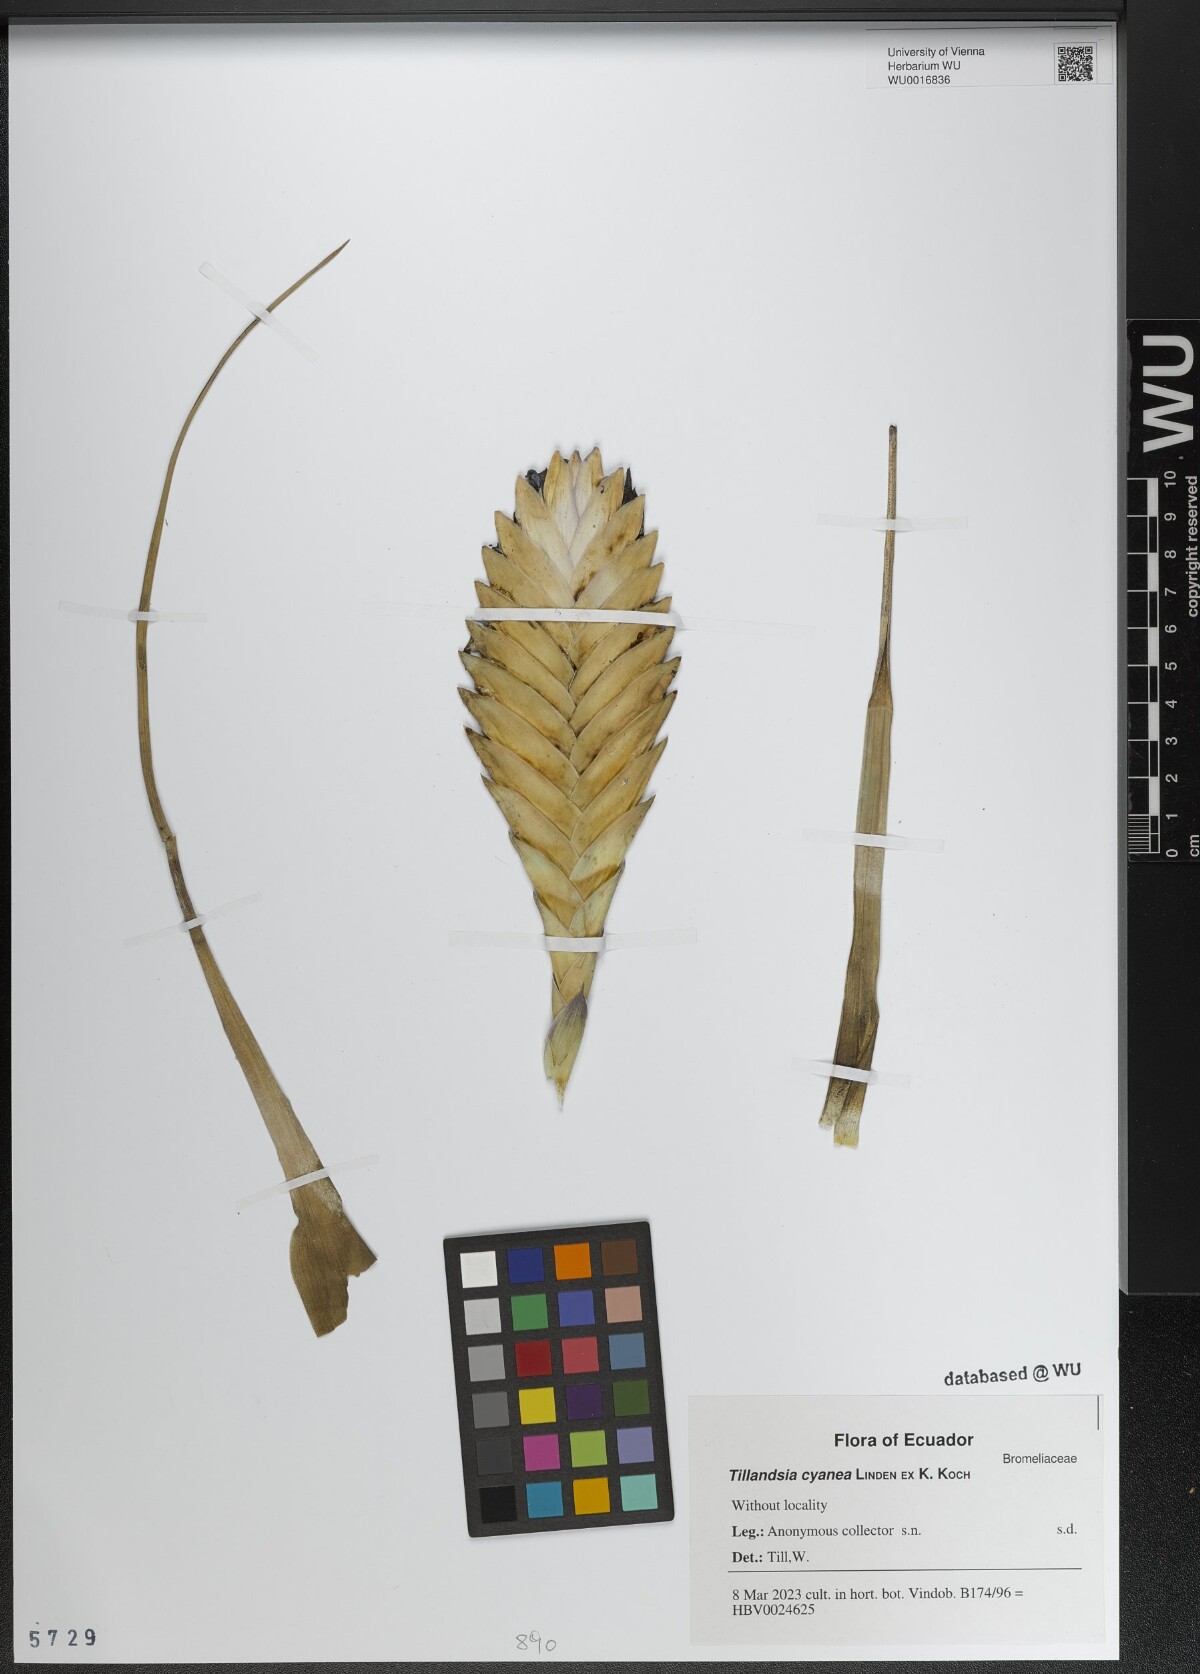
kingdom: Plantae
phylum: Tracheophyta
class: Liliopsida
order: Poales
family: Bromeliaceae
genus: Tillandsia
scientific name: Tillandsia cyanea
